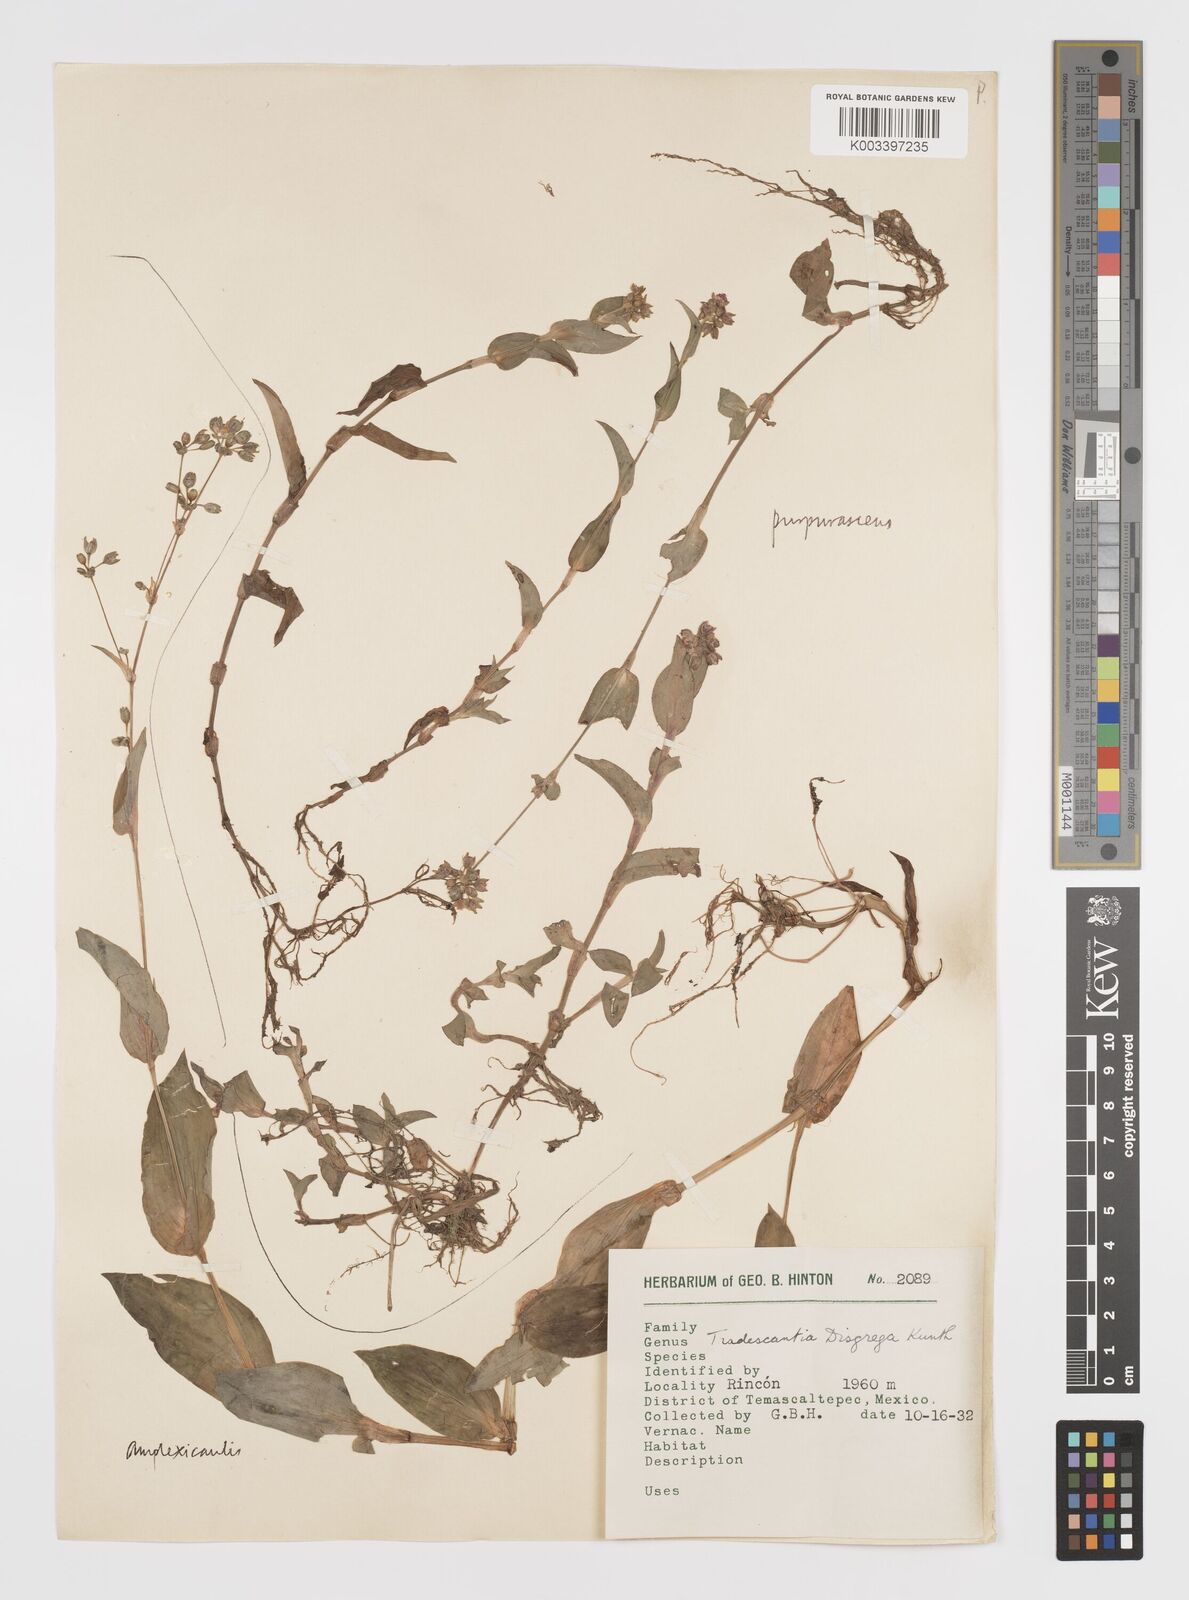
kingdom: Plantae
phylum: Tracheophyta
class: Liliopsida
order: Commelinales
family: Commelinaceae
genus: Callisia
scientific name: Callisia disgrega
